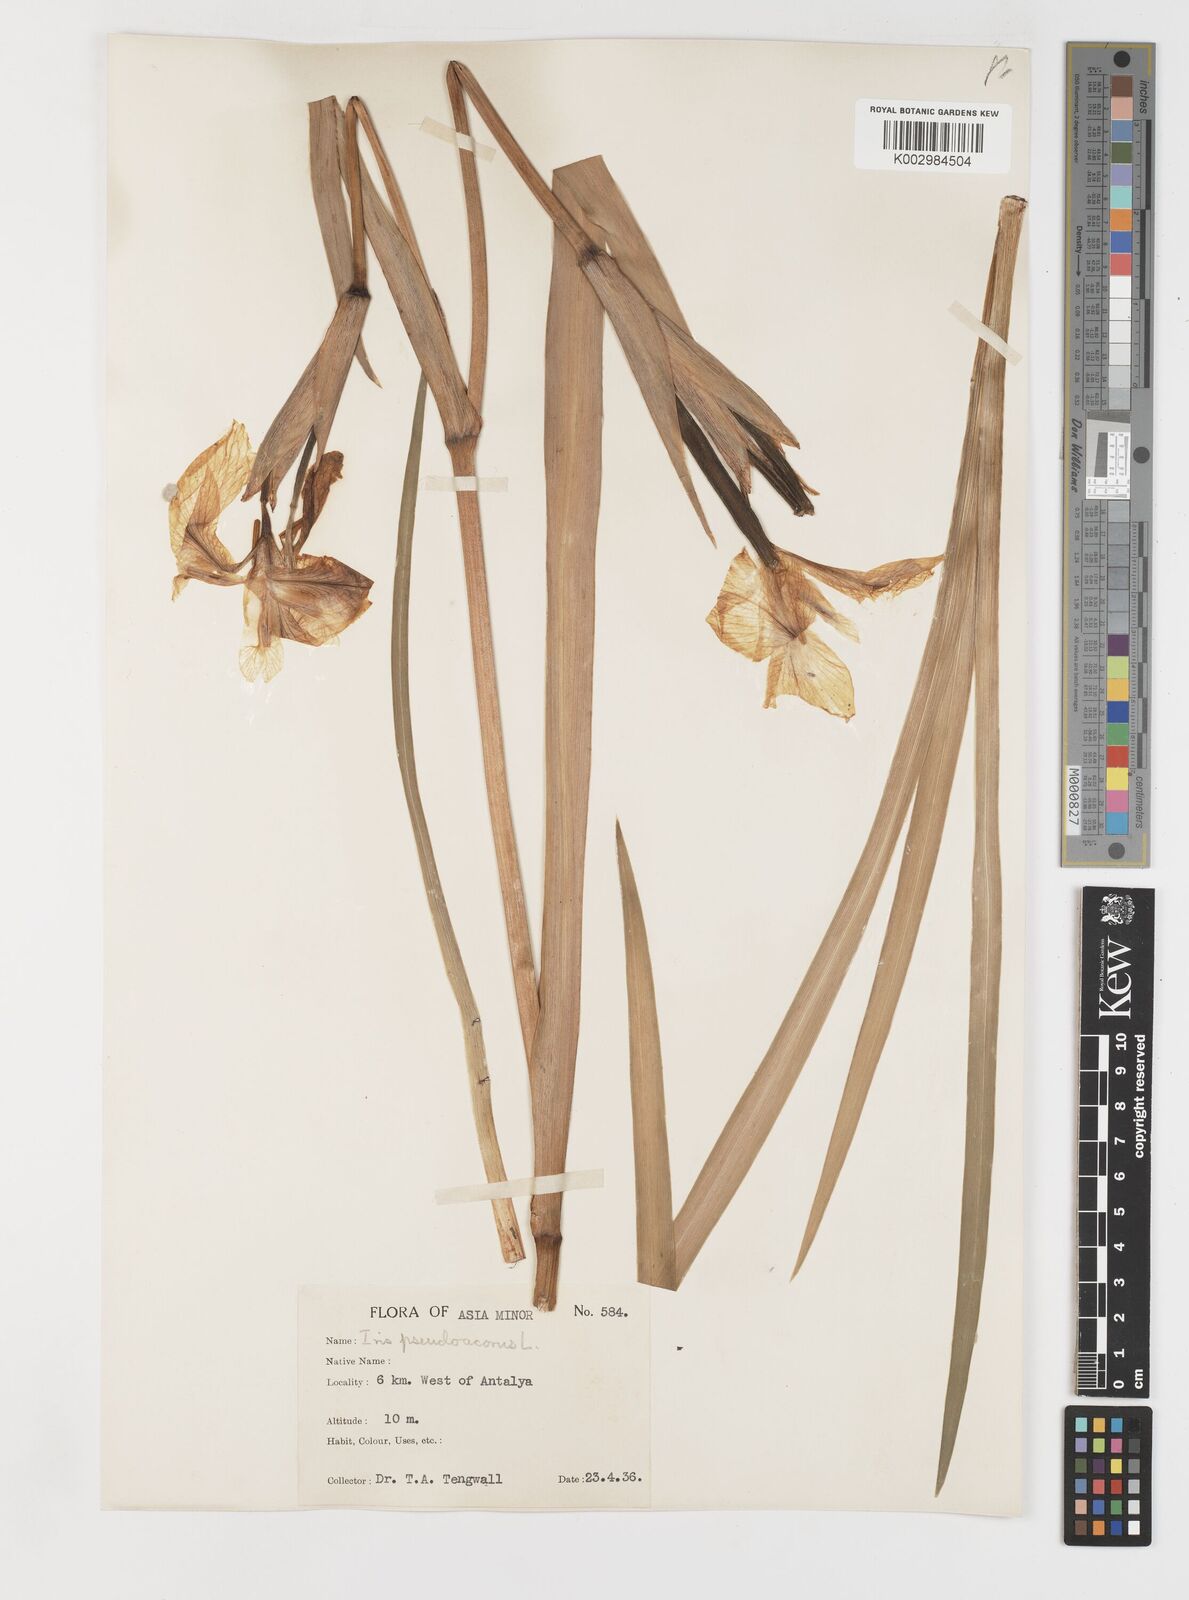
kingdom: Plantae
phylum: Tracheophyta
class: Liliopsida
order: Asparagales
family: Iridaceae
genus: Iris
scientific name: Iris pseudacorus
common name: Yellow flag
